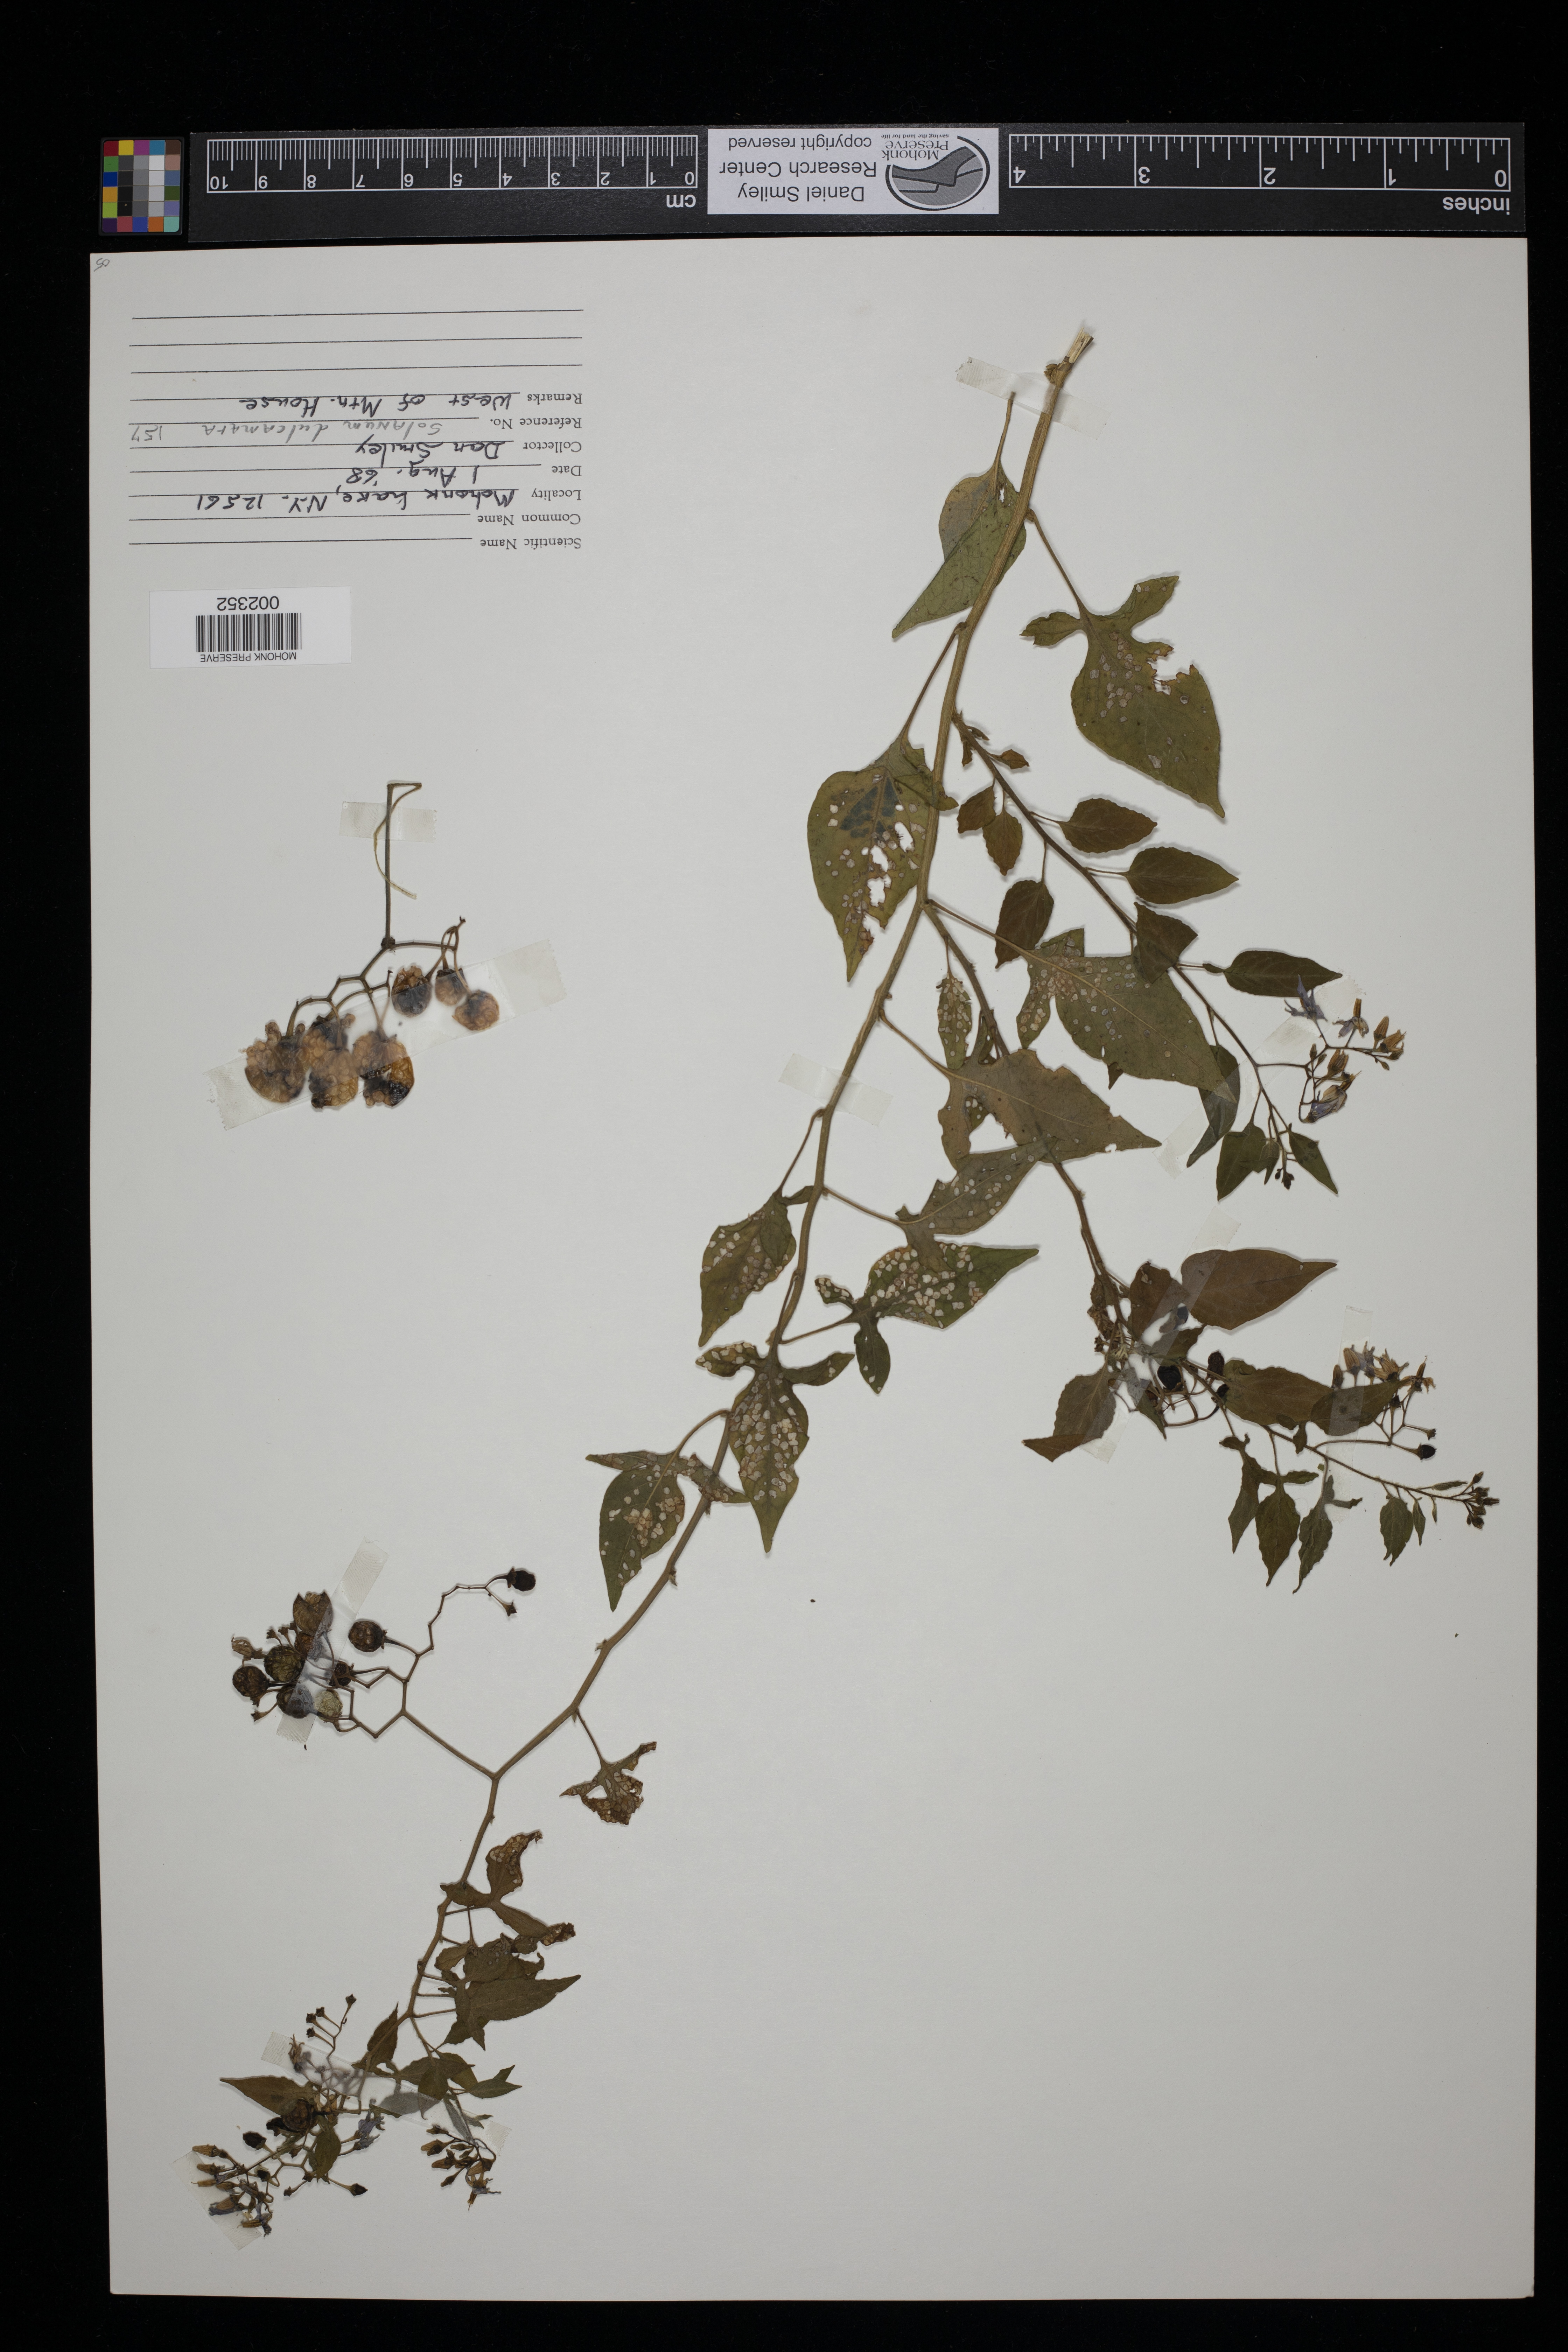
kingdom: Plantae
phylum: Tracheophyta
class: Magnoliopsida
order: Solanales
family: Solanaceae
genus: Solanum
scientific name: Solanum dulcamara
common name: Climbing nightshade
